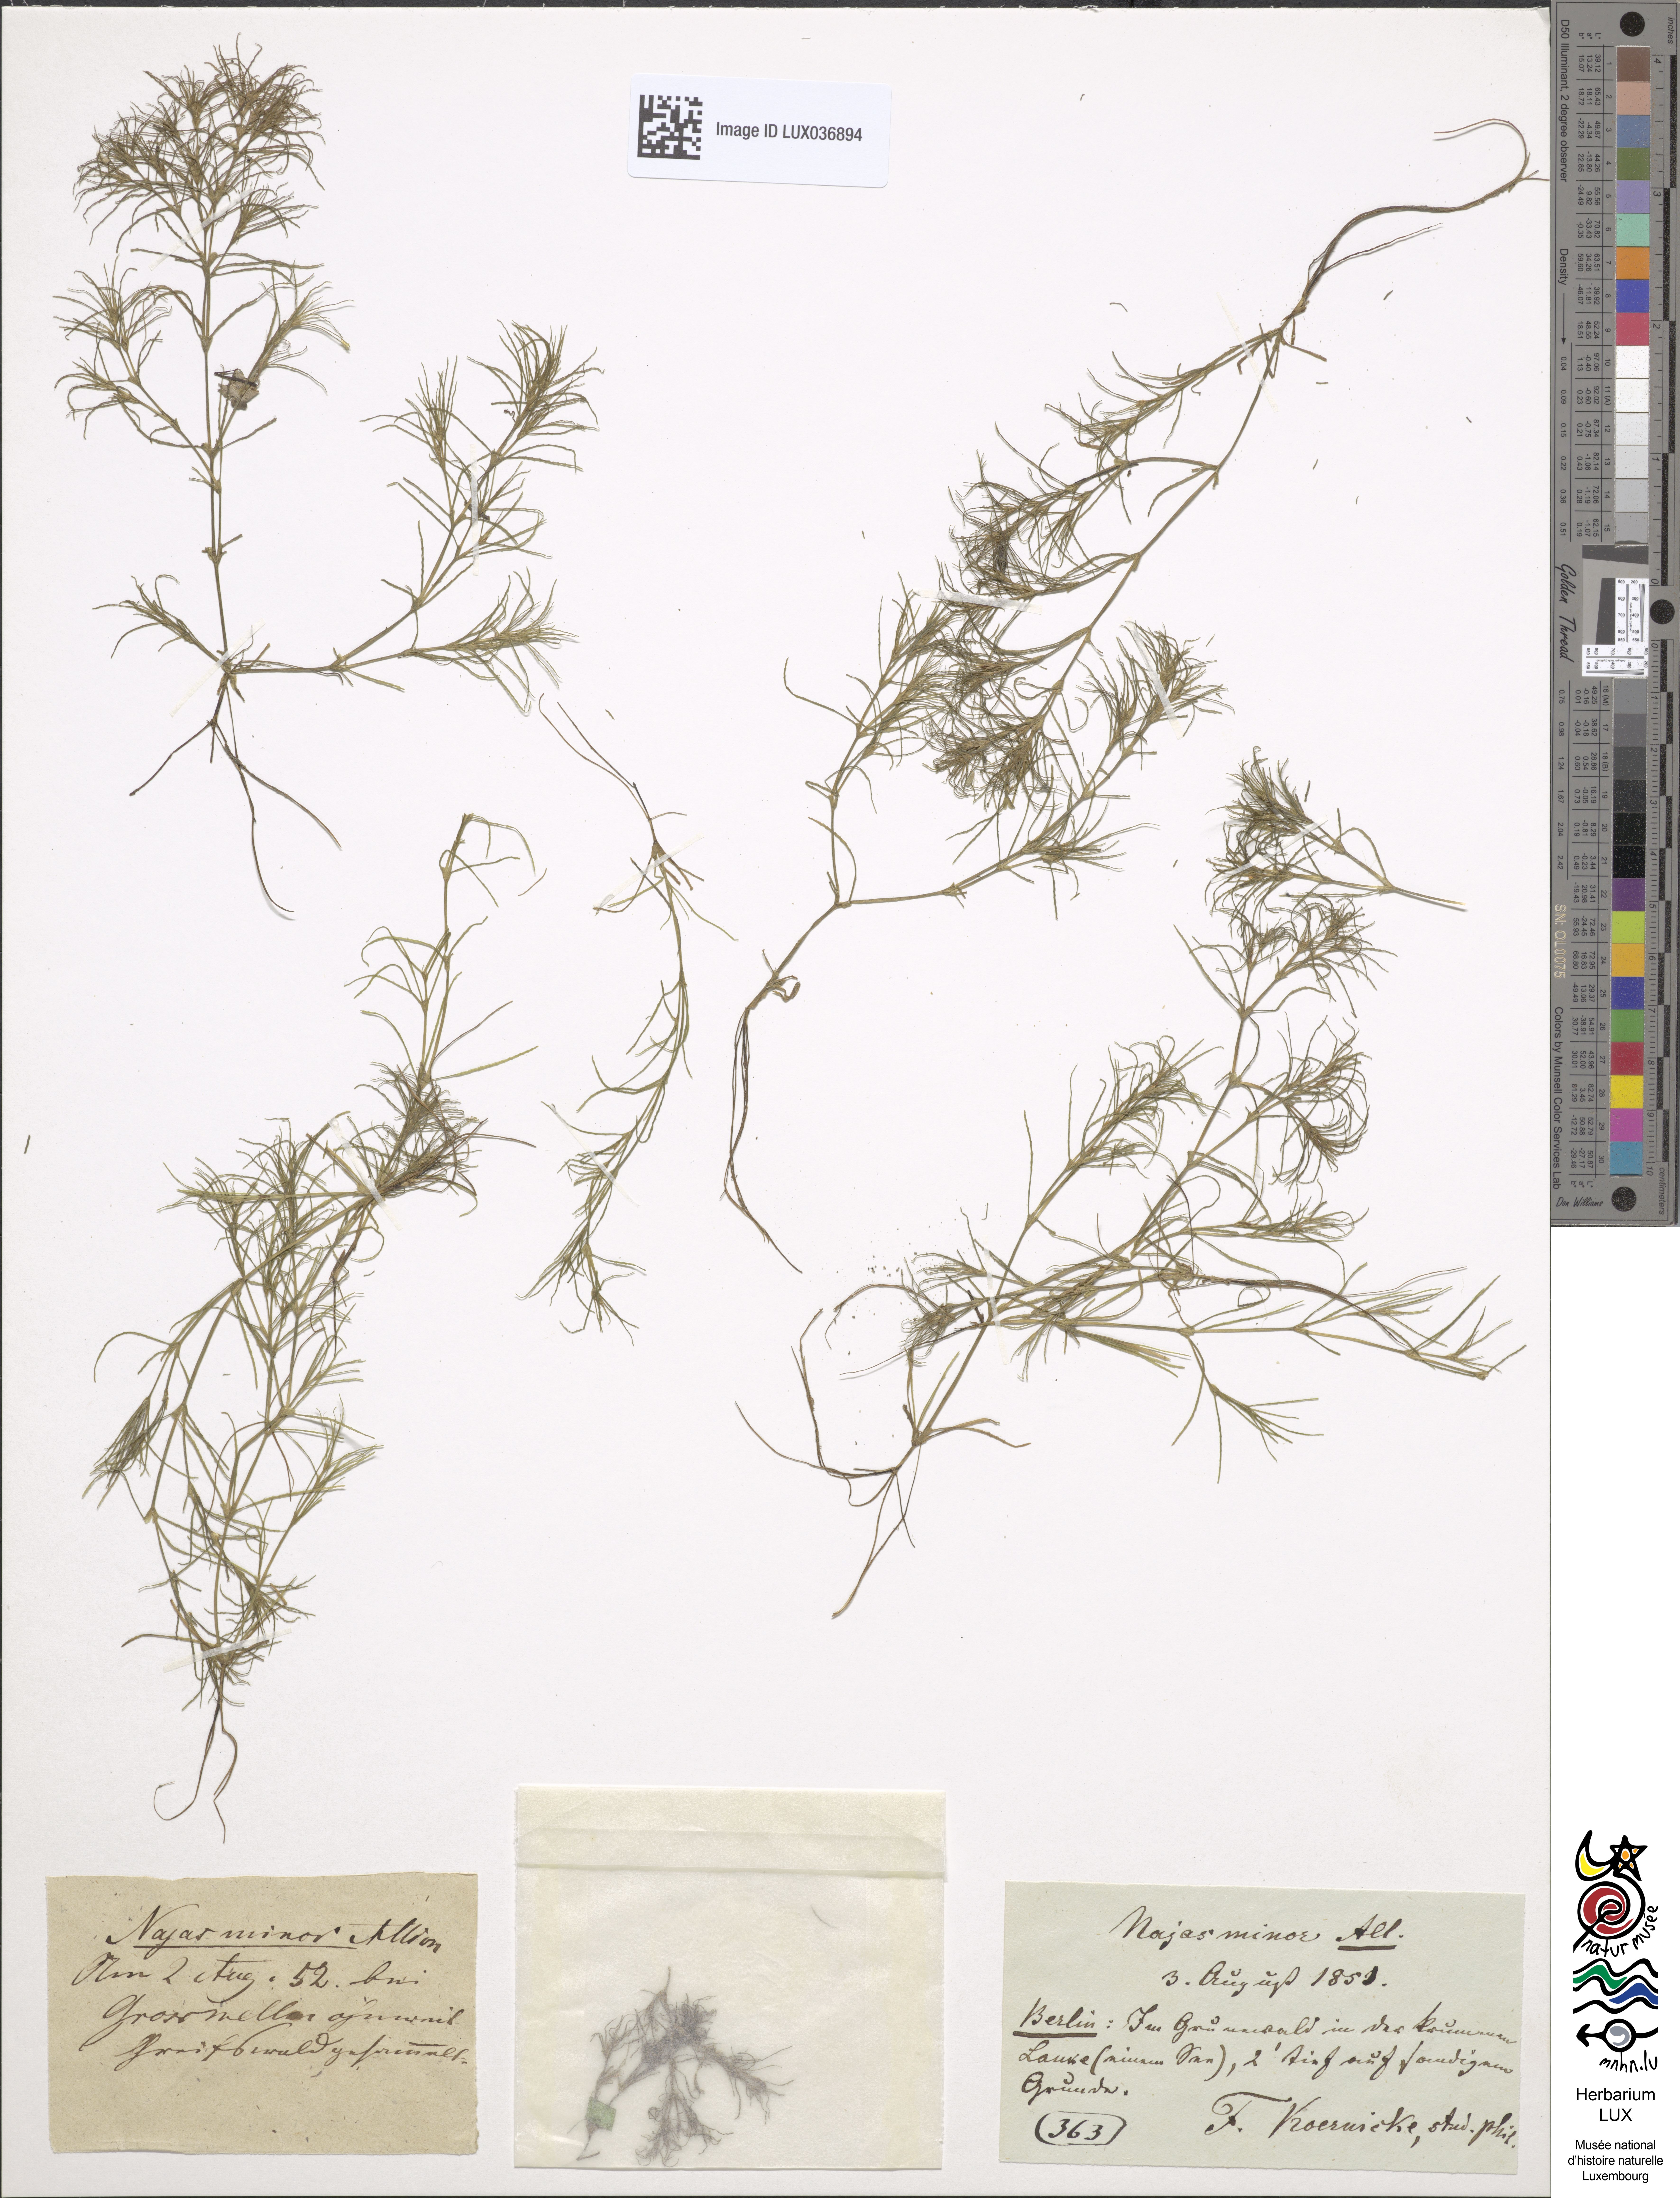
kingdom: Plantae
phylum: Tracheophyta
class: Liliopsida
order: Alismatales
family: Hydrocharitaceae
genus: Najas
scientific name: Najas minor
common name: Brittle naiad
